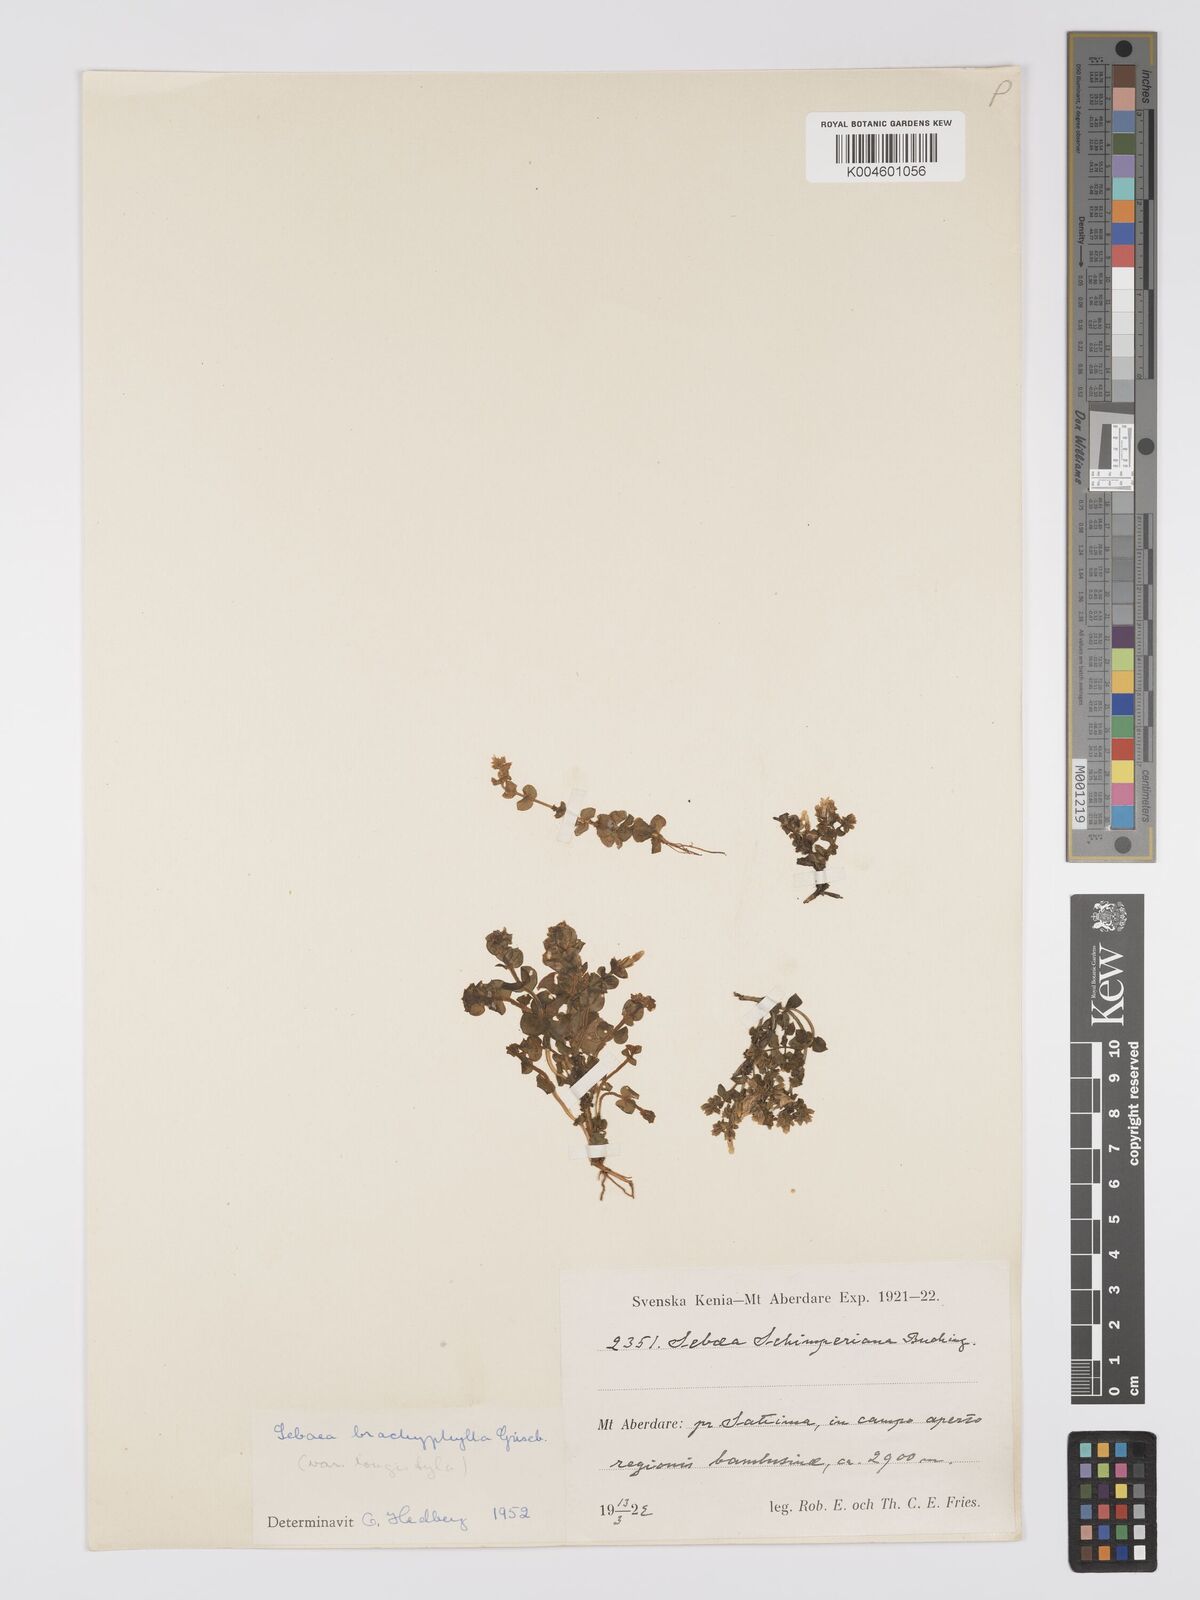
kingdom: Plantae
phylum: Tracheophyta
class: Magnoliopsida
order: Gentianales
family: Gentianaceae
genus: Sebaea
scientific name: Sebaea brachyphylla
